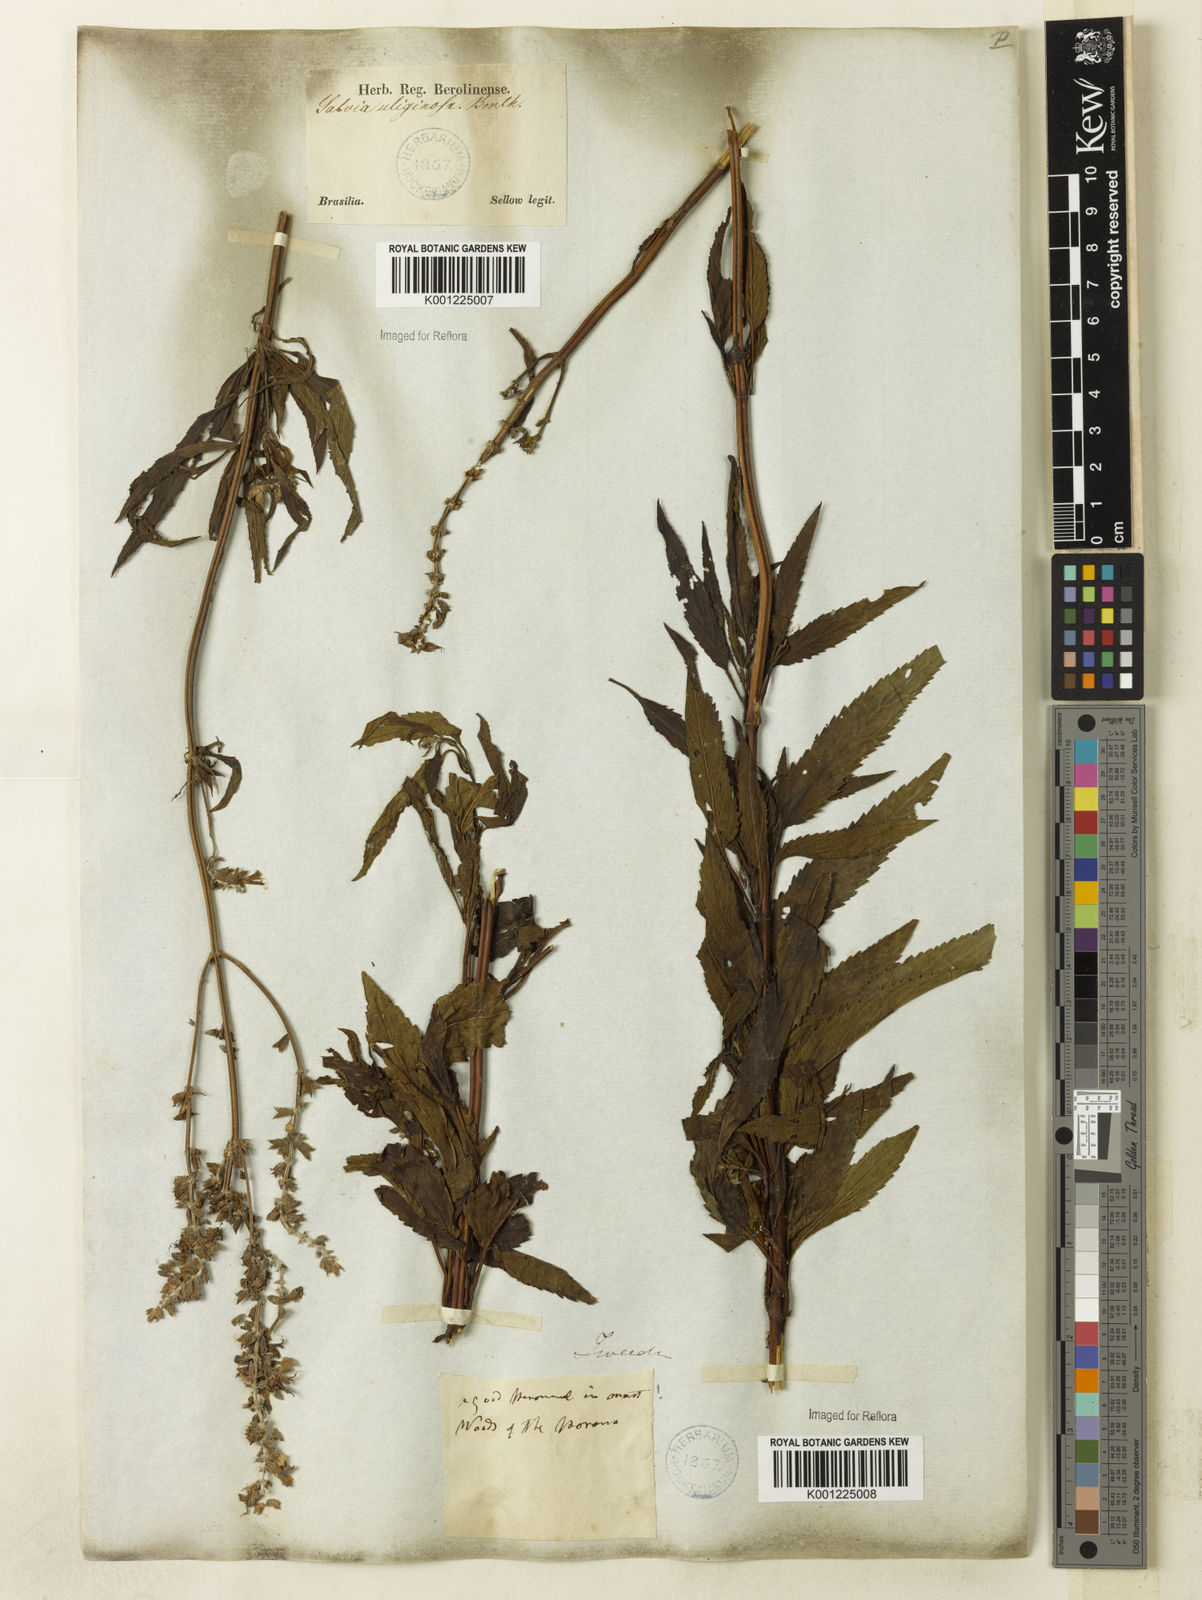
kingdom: Plantae
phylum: Tracheophyta
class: Magnoliopsida
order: Lamiales
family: Lamiaceae
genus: Salvia
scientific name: Salvia uliginosa
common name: Bog sage
